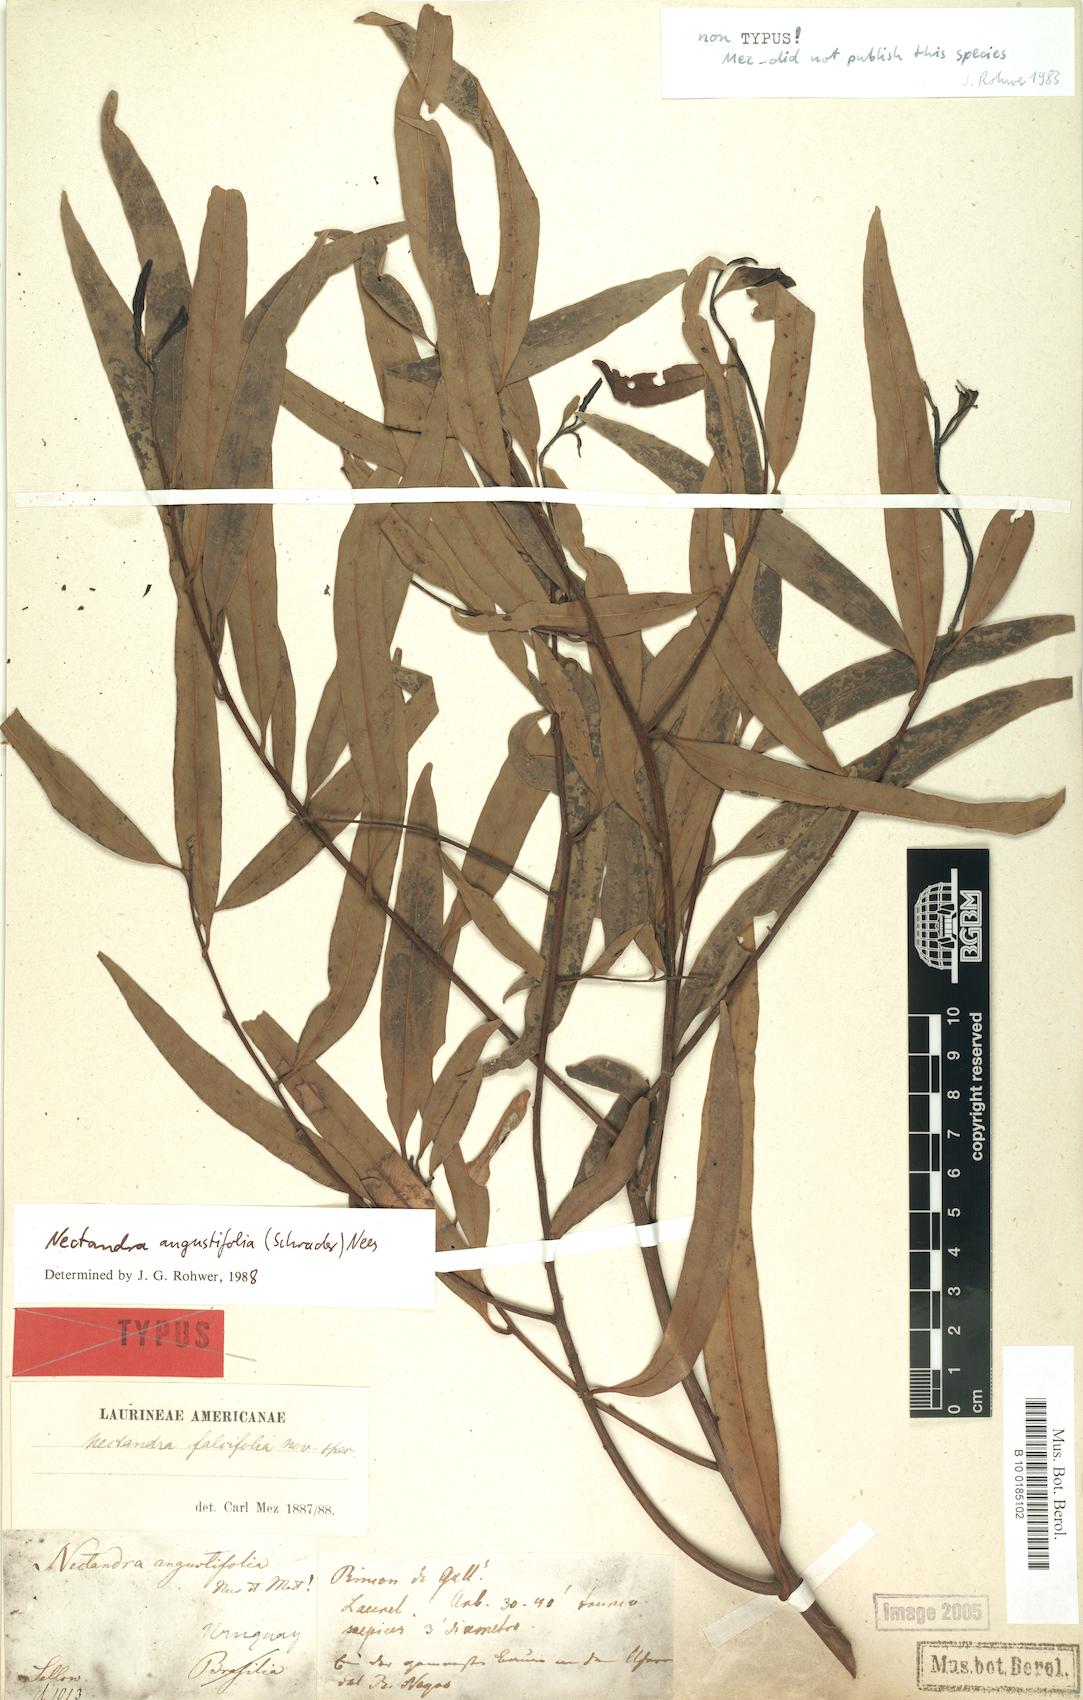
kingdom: Plantae
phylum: Tracheophyta
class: Magnoliopsida
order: Laurales
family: Lauraceae
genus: Nectandra
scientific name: Nectandra angustifolia
